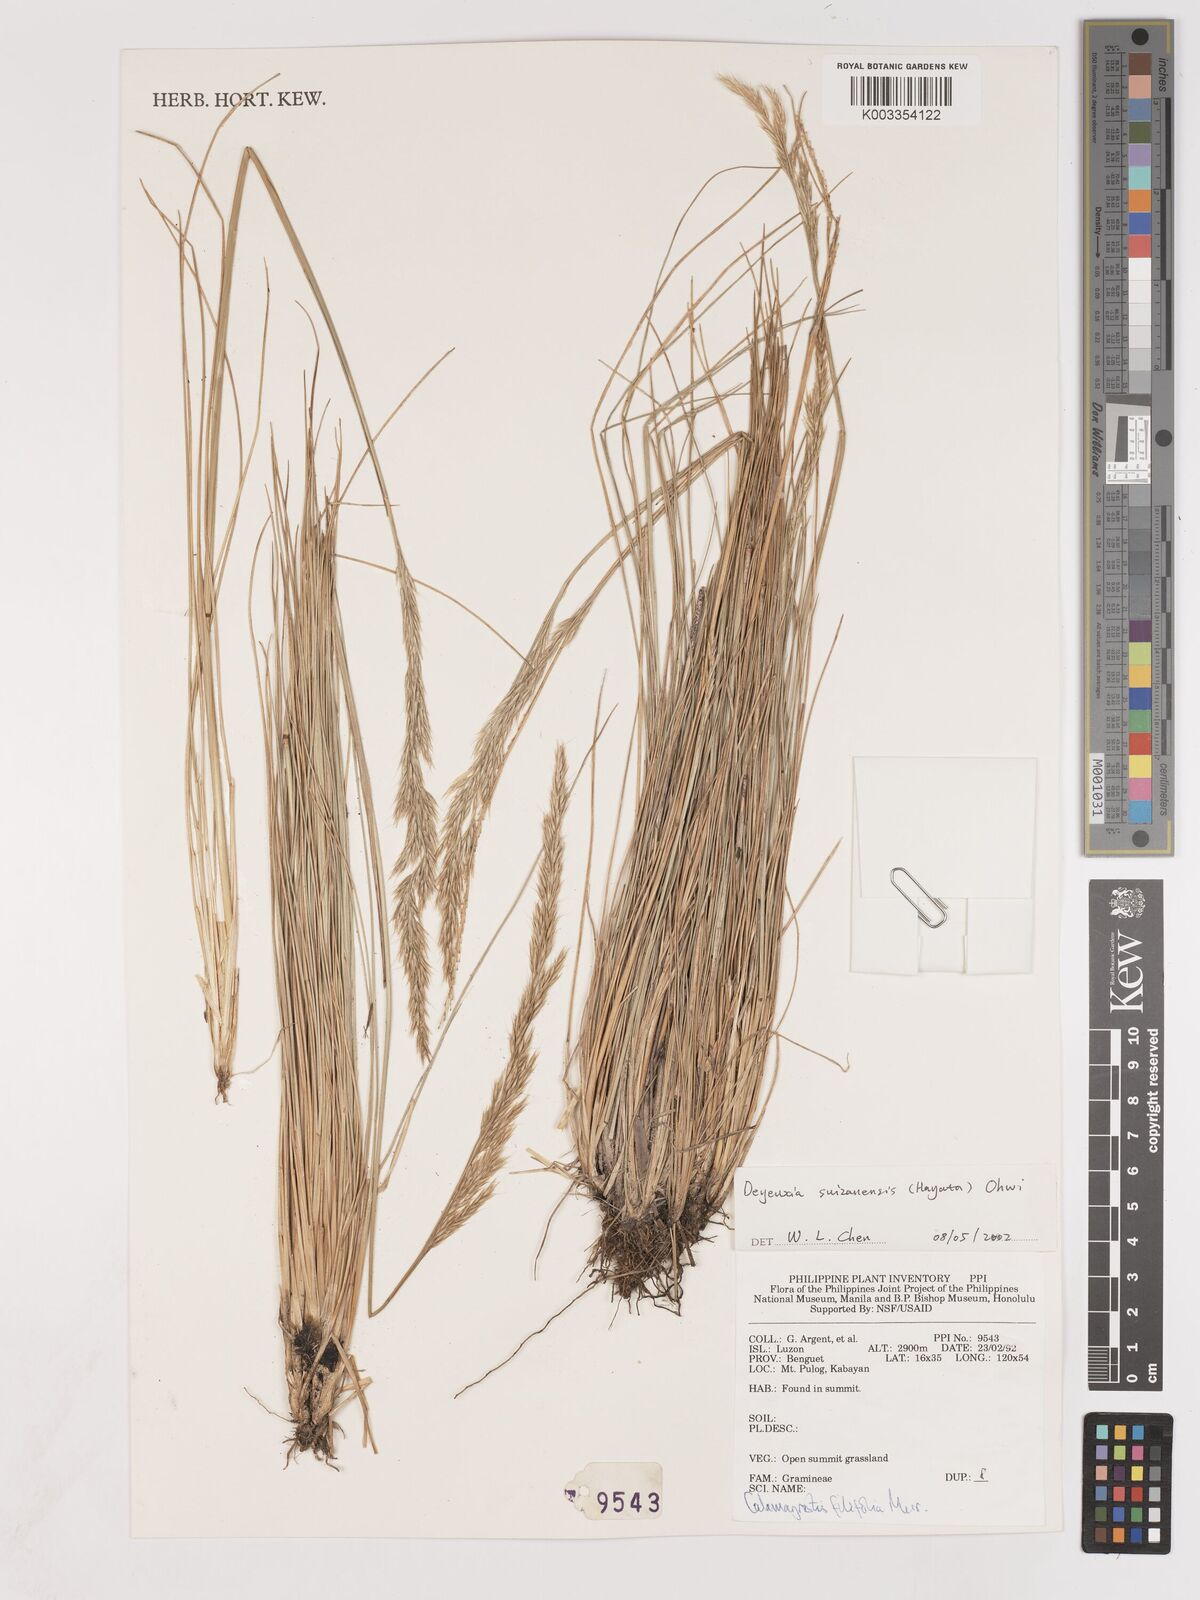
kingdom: Plantae
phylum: Tracheophyta
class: Liliopsida
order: Poales
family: Poaceae
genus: Calamagrostis
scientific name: Calamagrostis filifolia
